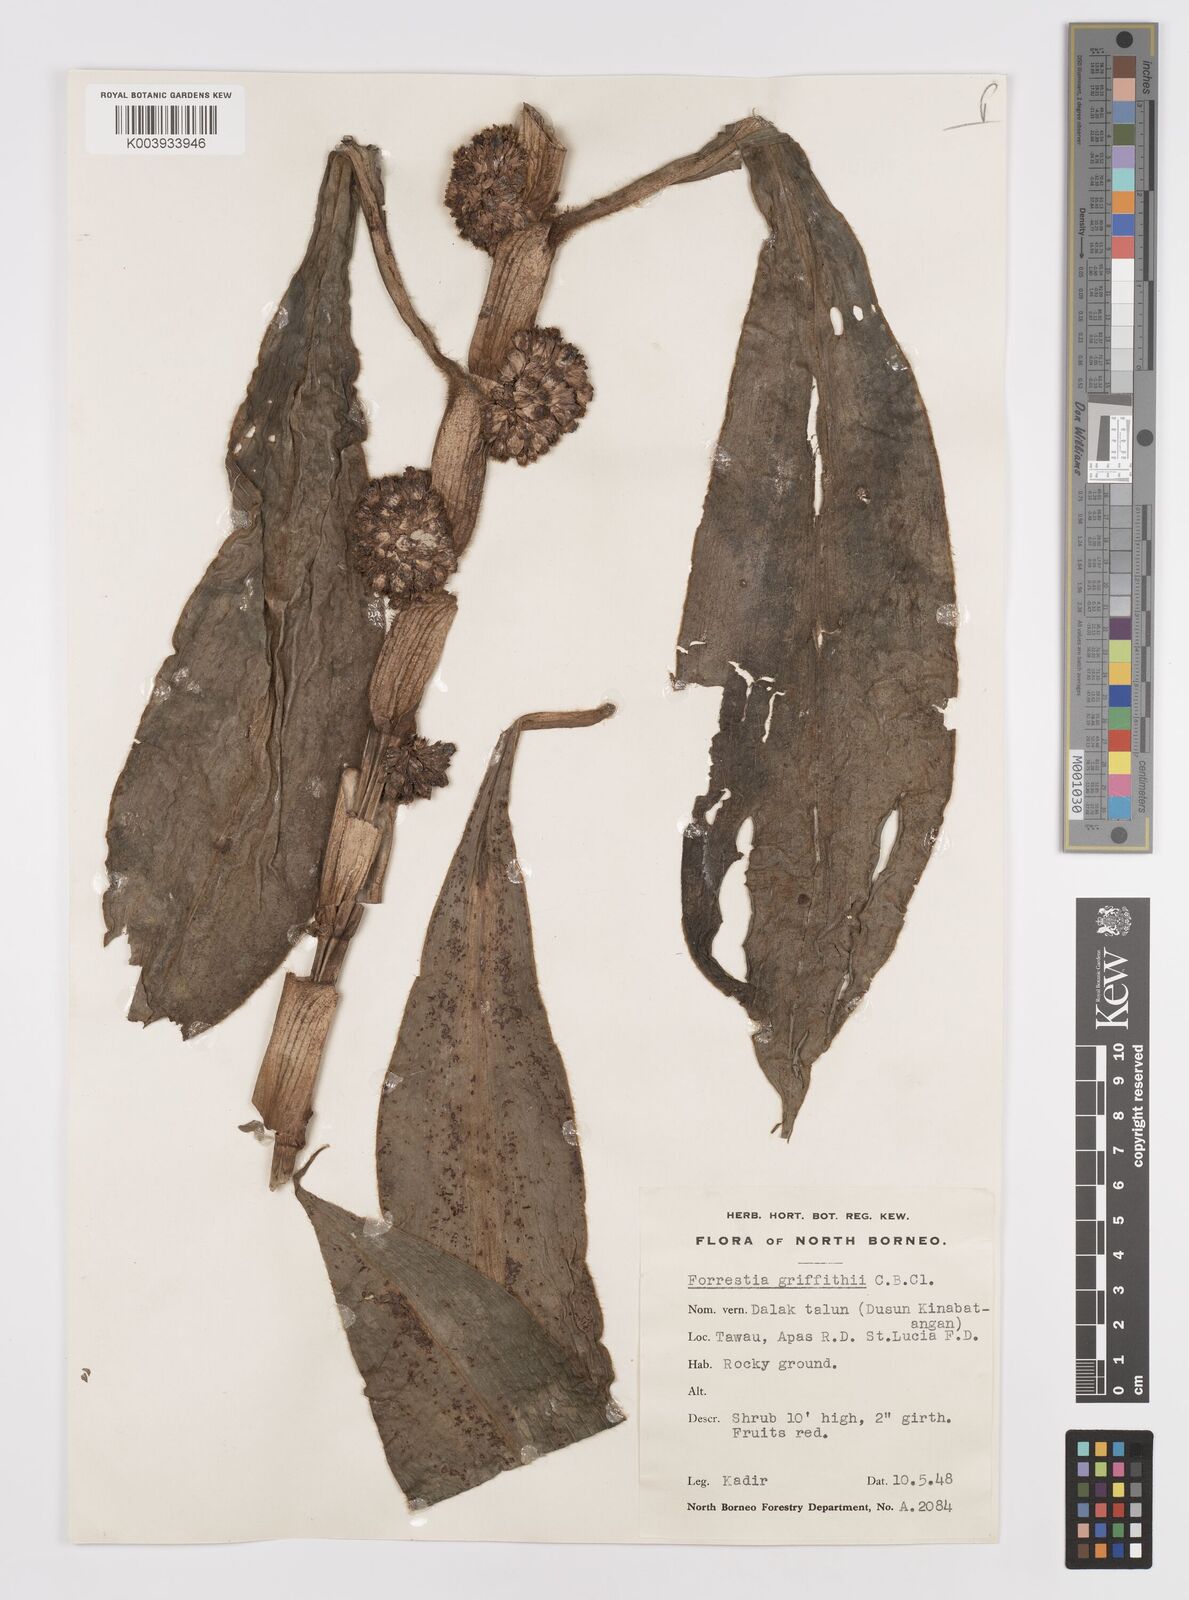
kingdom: Plantae
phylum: Tracheophyta
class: Liliopsida
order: Commelinales
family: Commelinaceae
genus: Amischotolype
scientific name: Amischotolype griffithii
